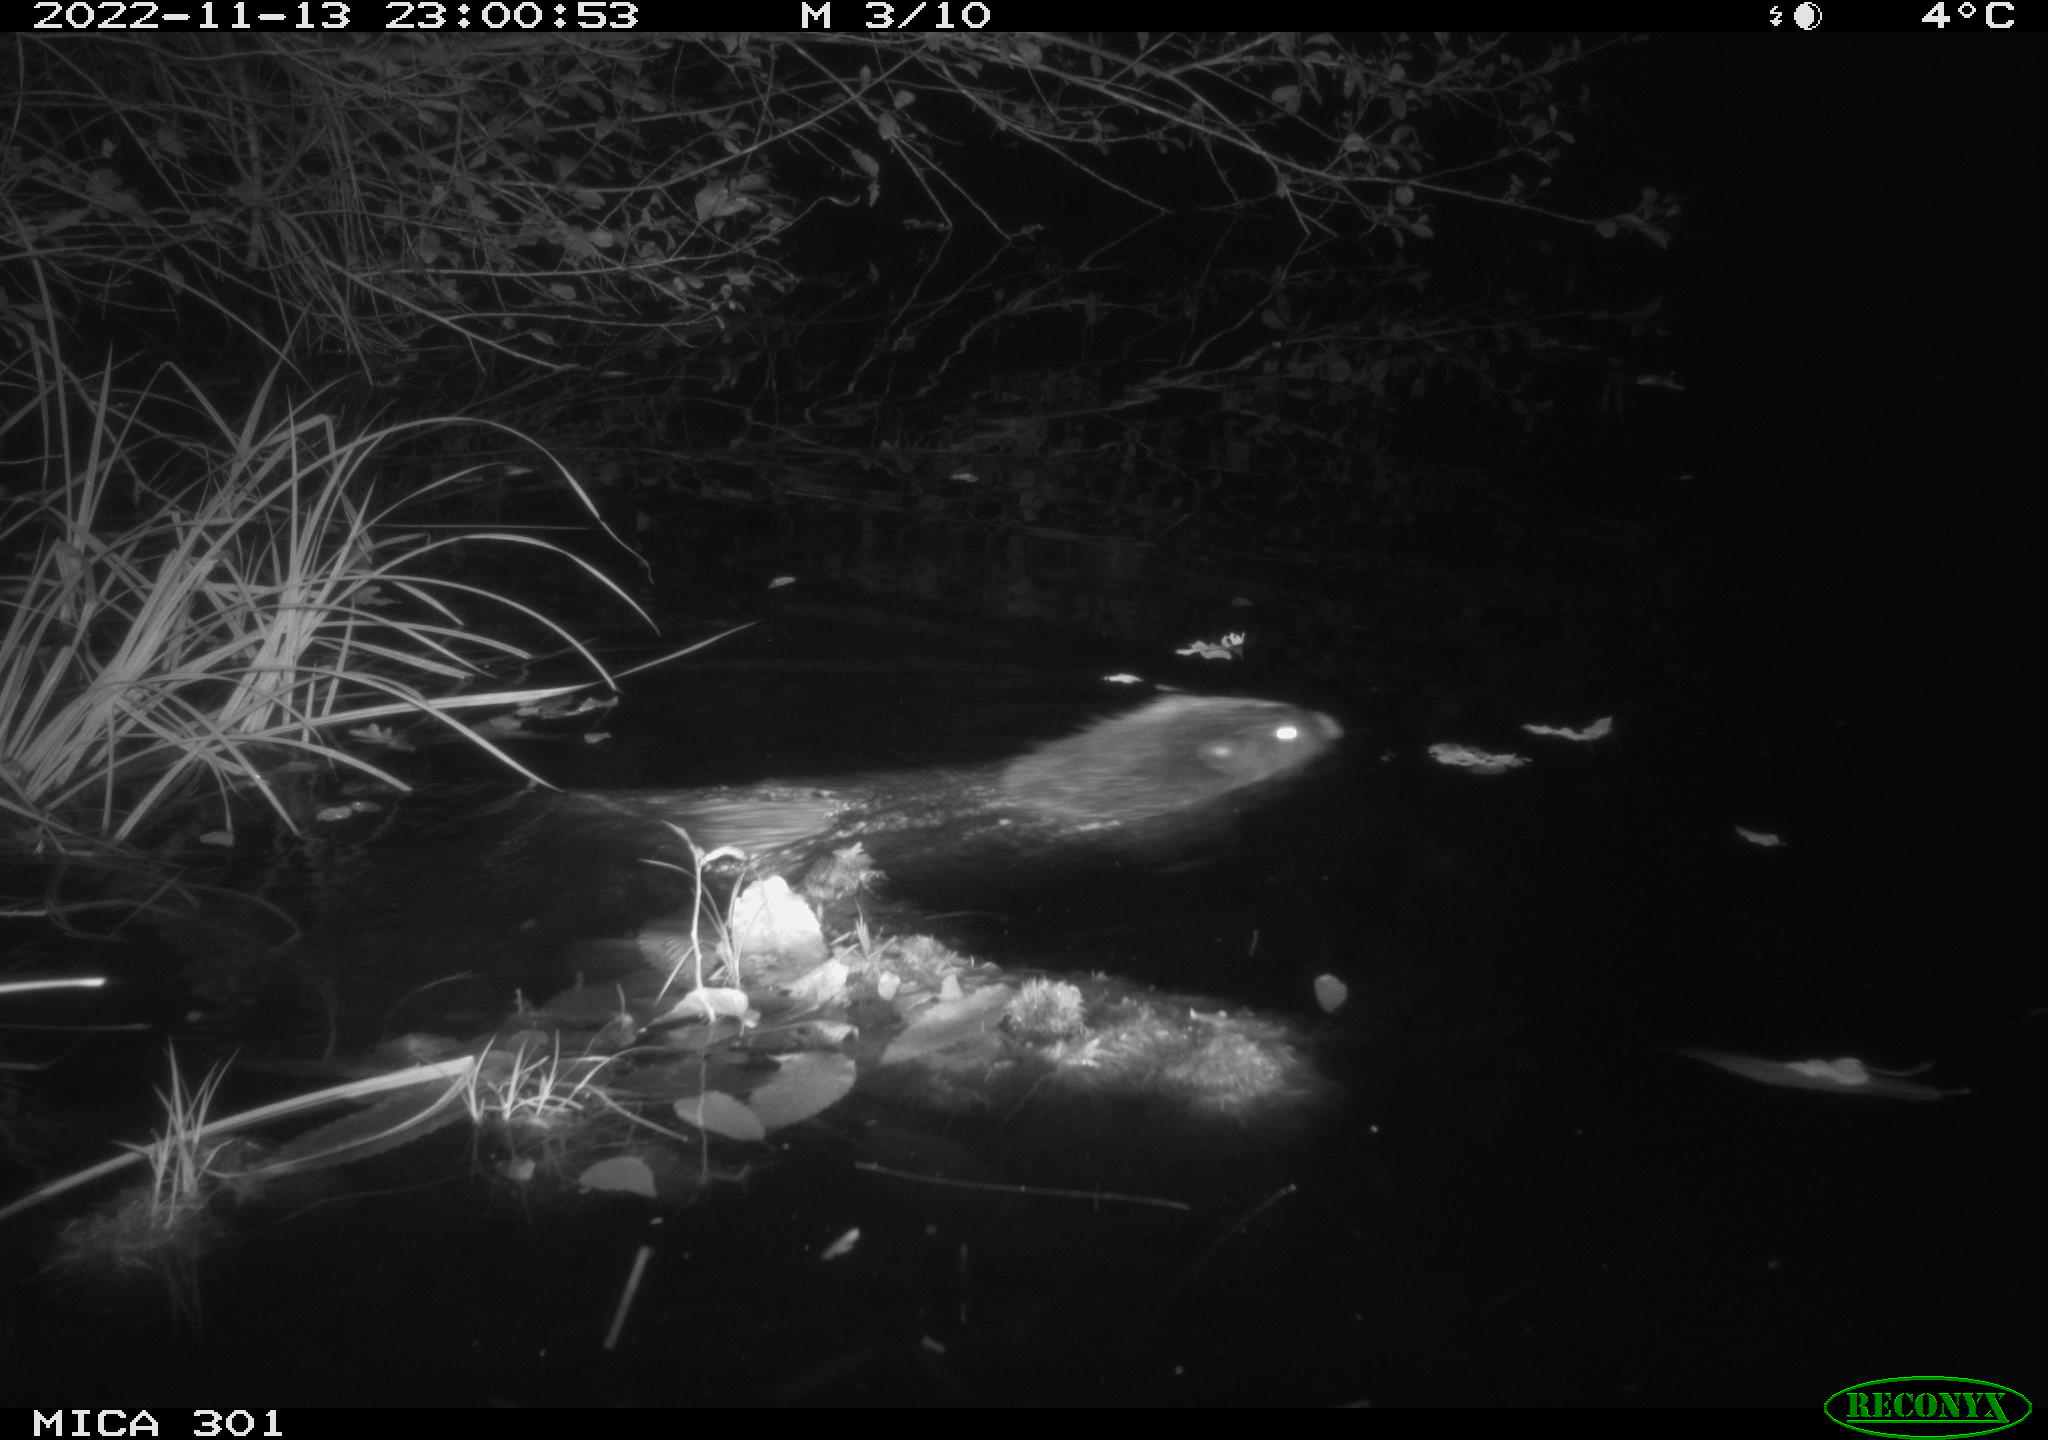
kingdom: Animalia
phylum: Chordata
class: Mammalia
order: Rodentia
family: Castoridae
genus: Castor
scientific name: Castor fiber
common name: Eurasian beaver
